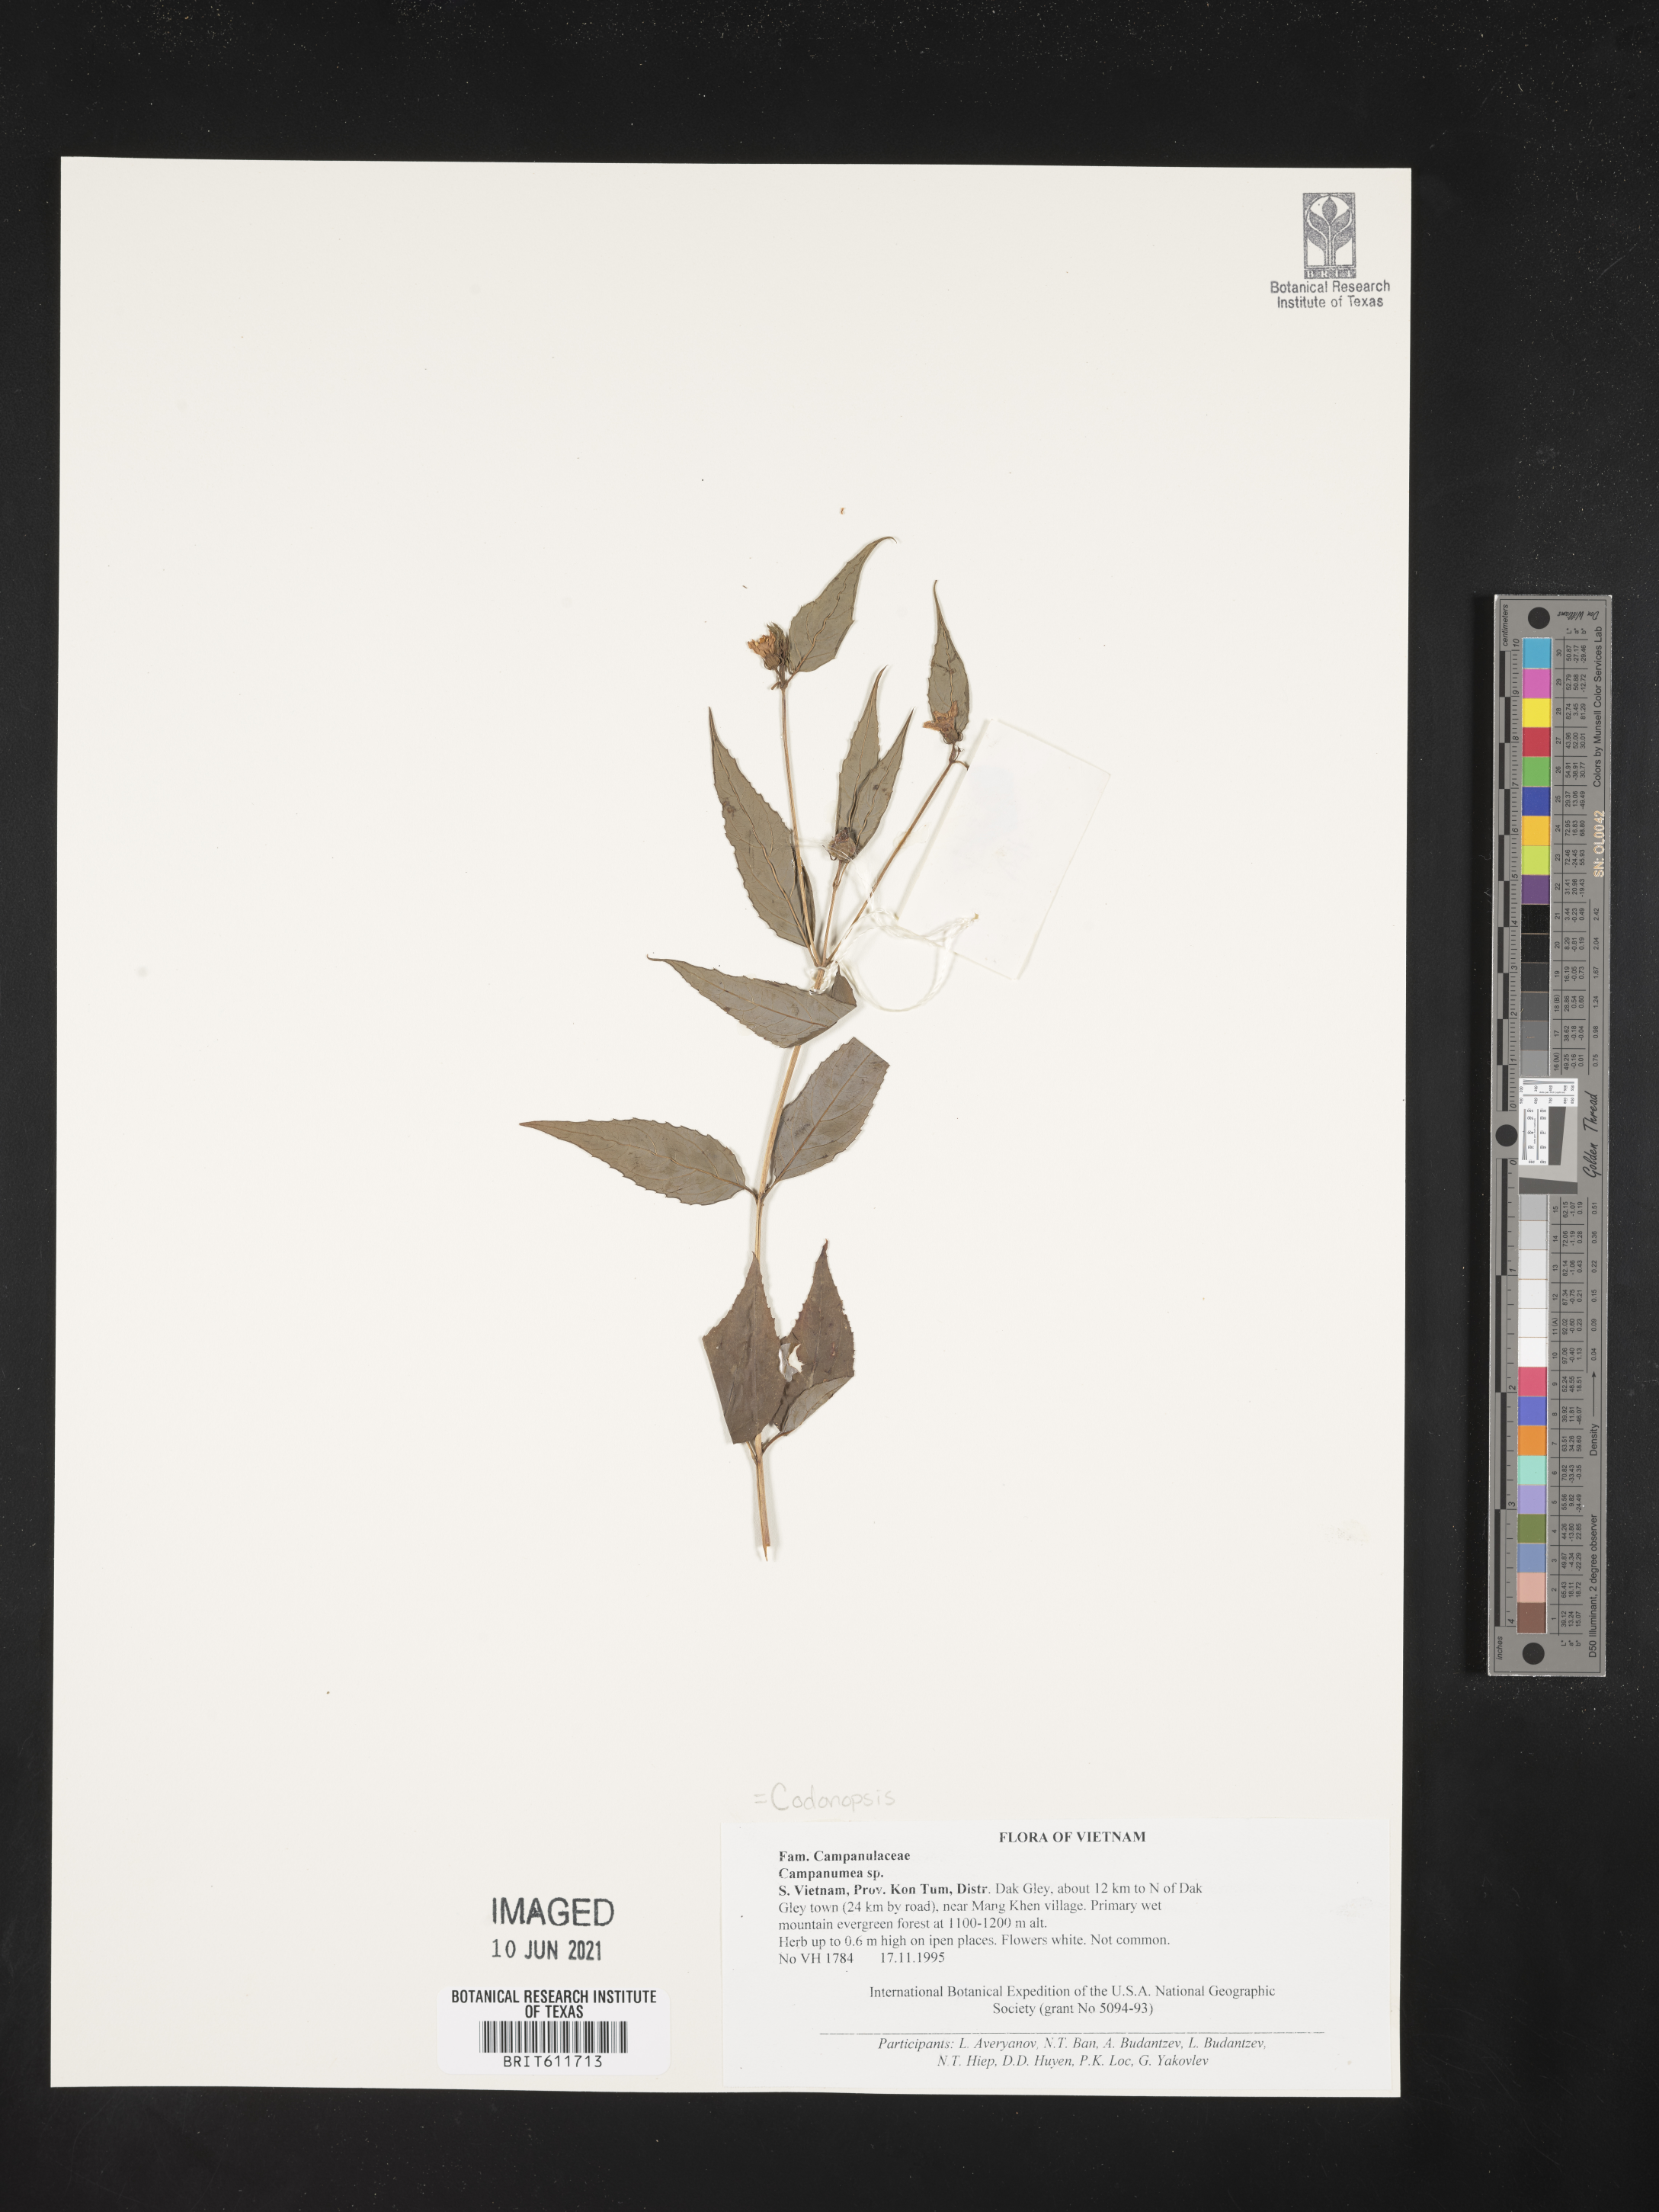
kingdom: Plantae
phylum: Tracheophyta
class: Magnoliopsida
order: Asterales
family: Campanulaceae
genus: Codonopsis
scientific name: Codonopsis
